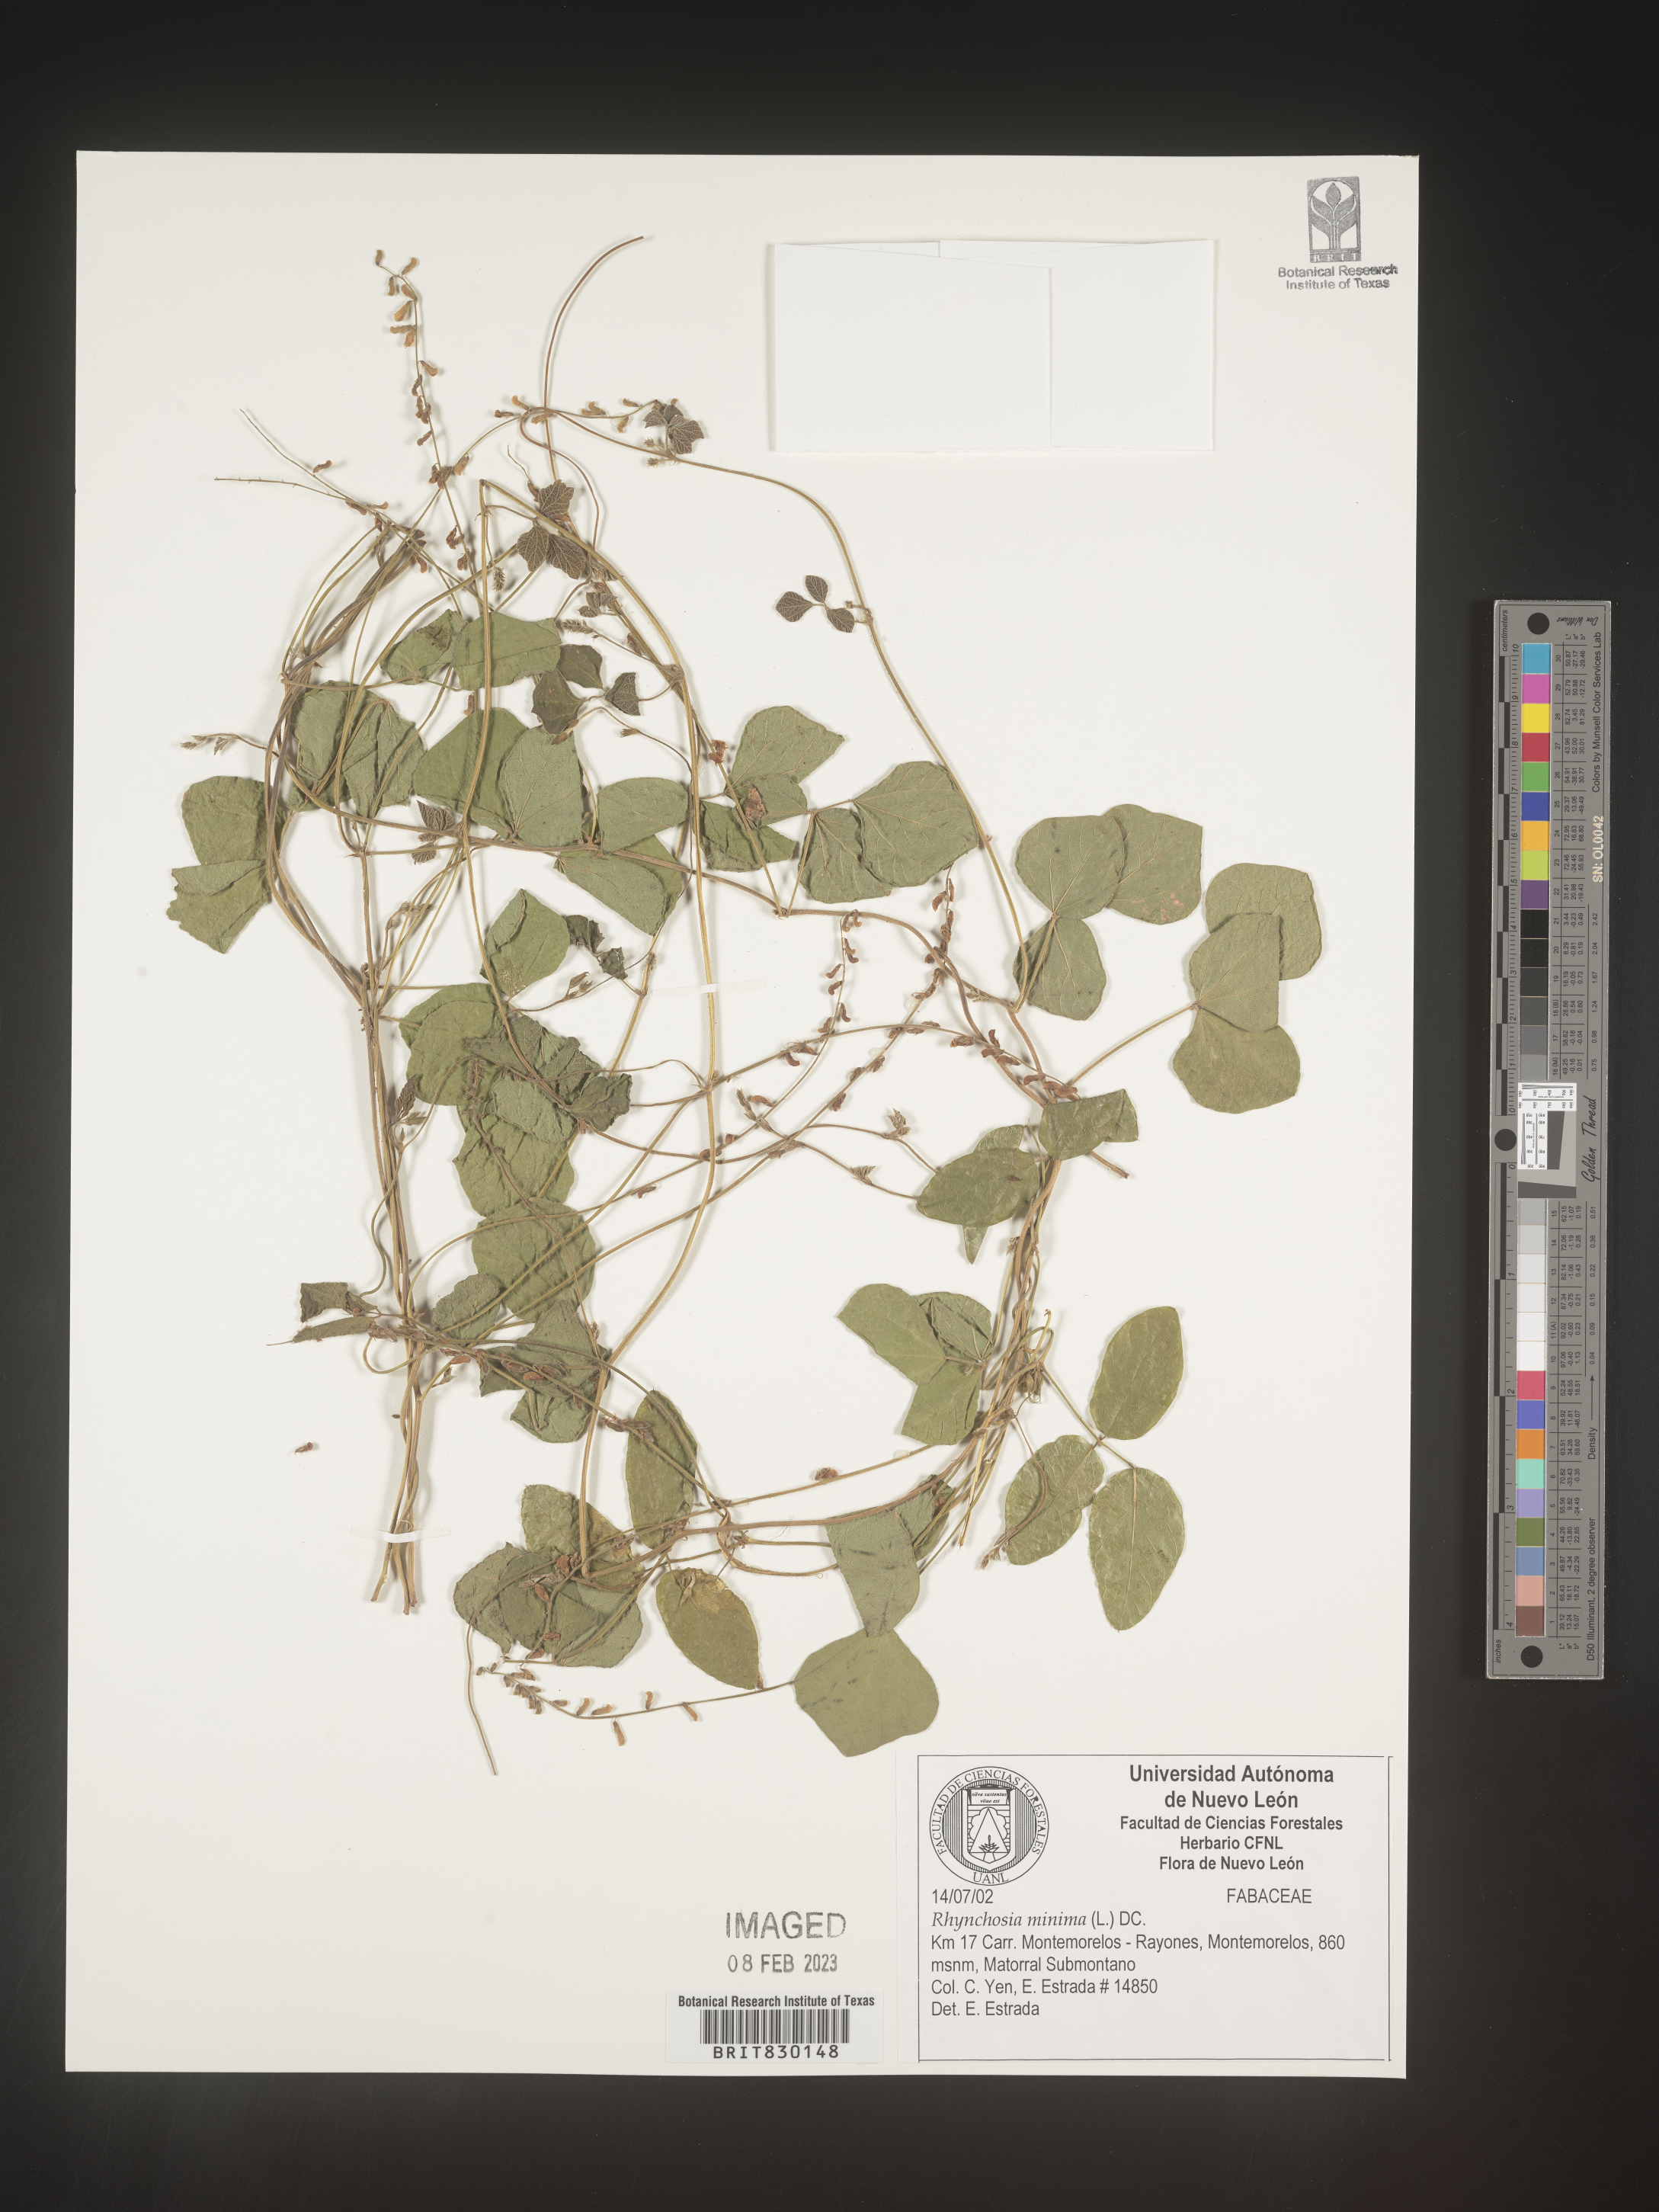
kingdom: Plantae
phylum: Tracheophyta
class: Magnoliopsida
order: Fabales
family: Fabaceae
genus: Rhynchosia
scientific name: Rhynchosia
